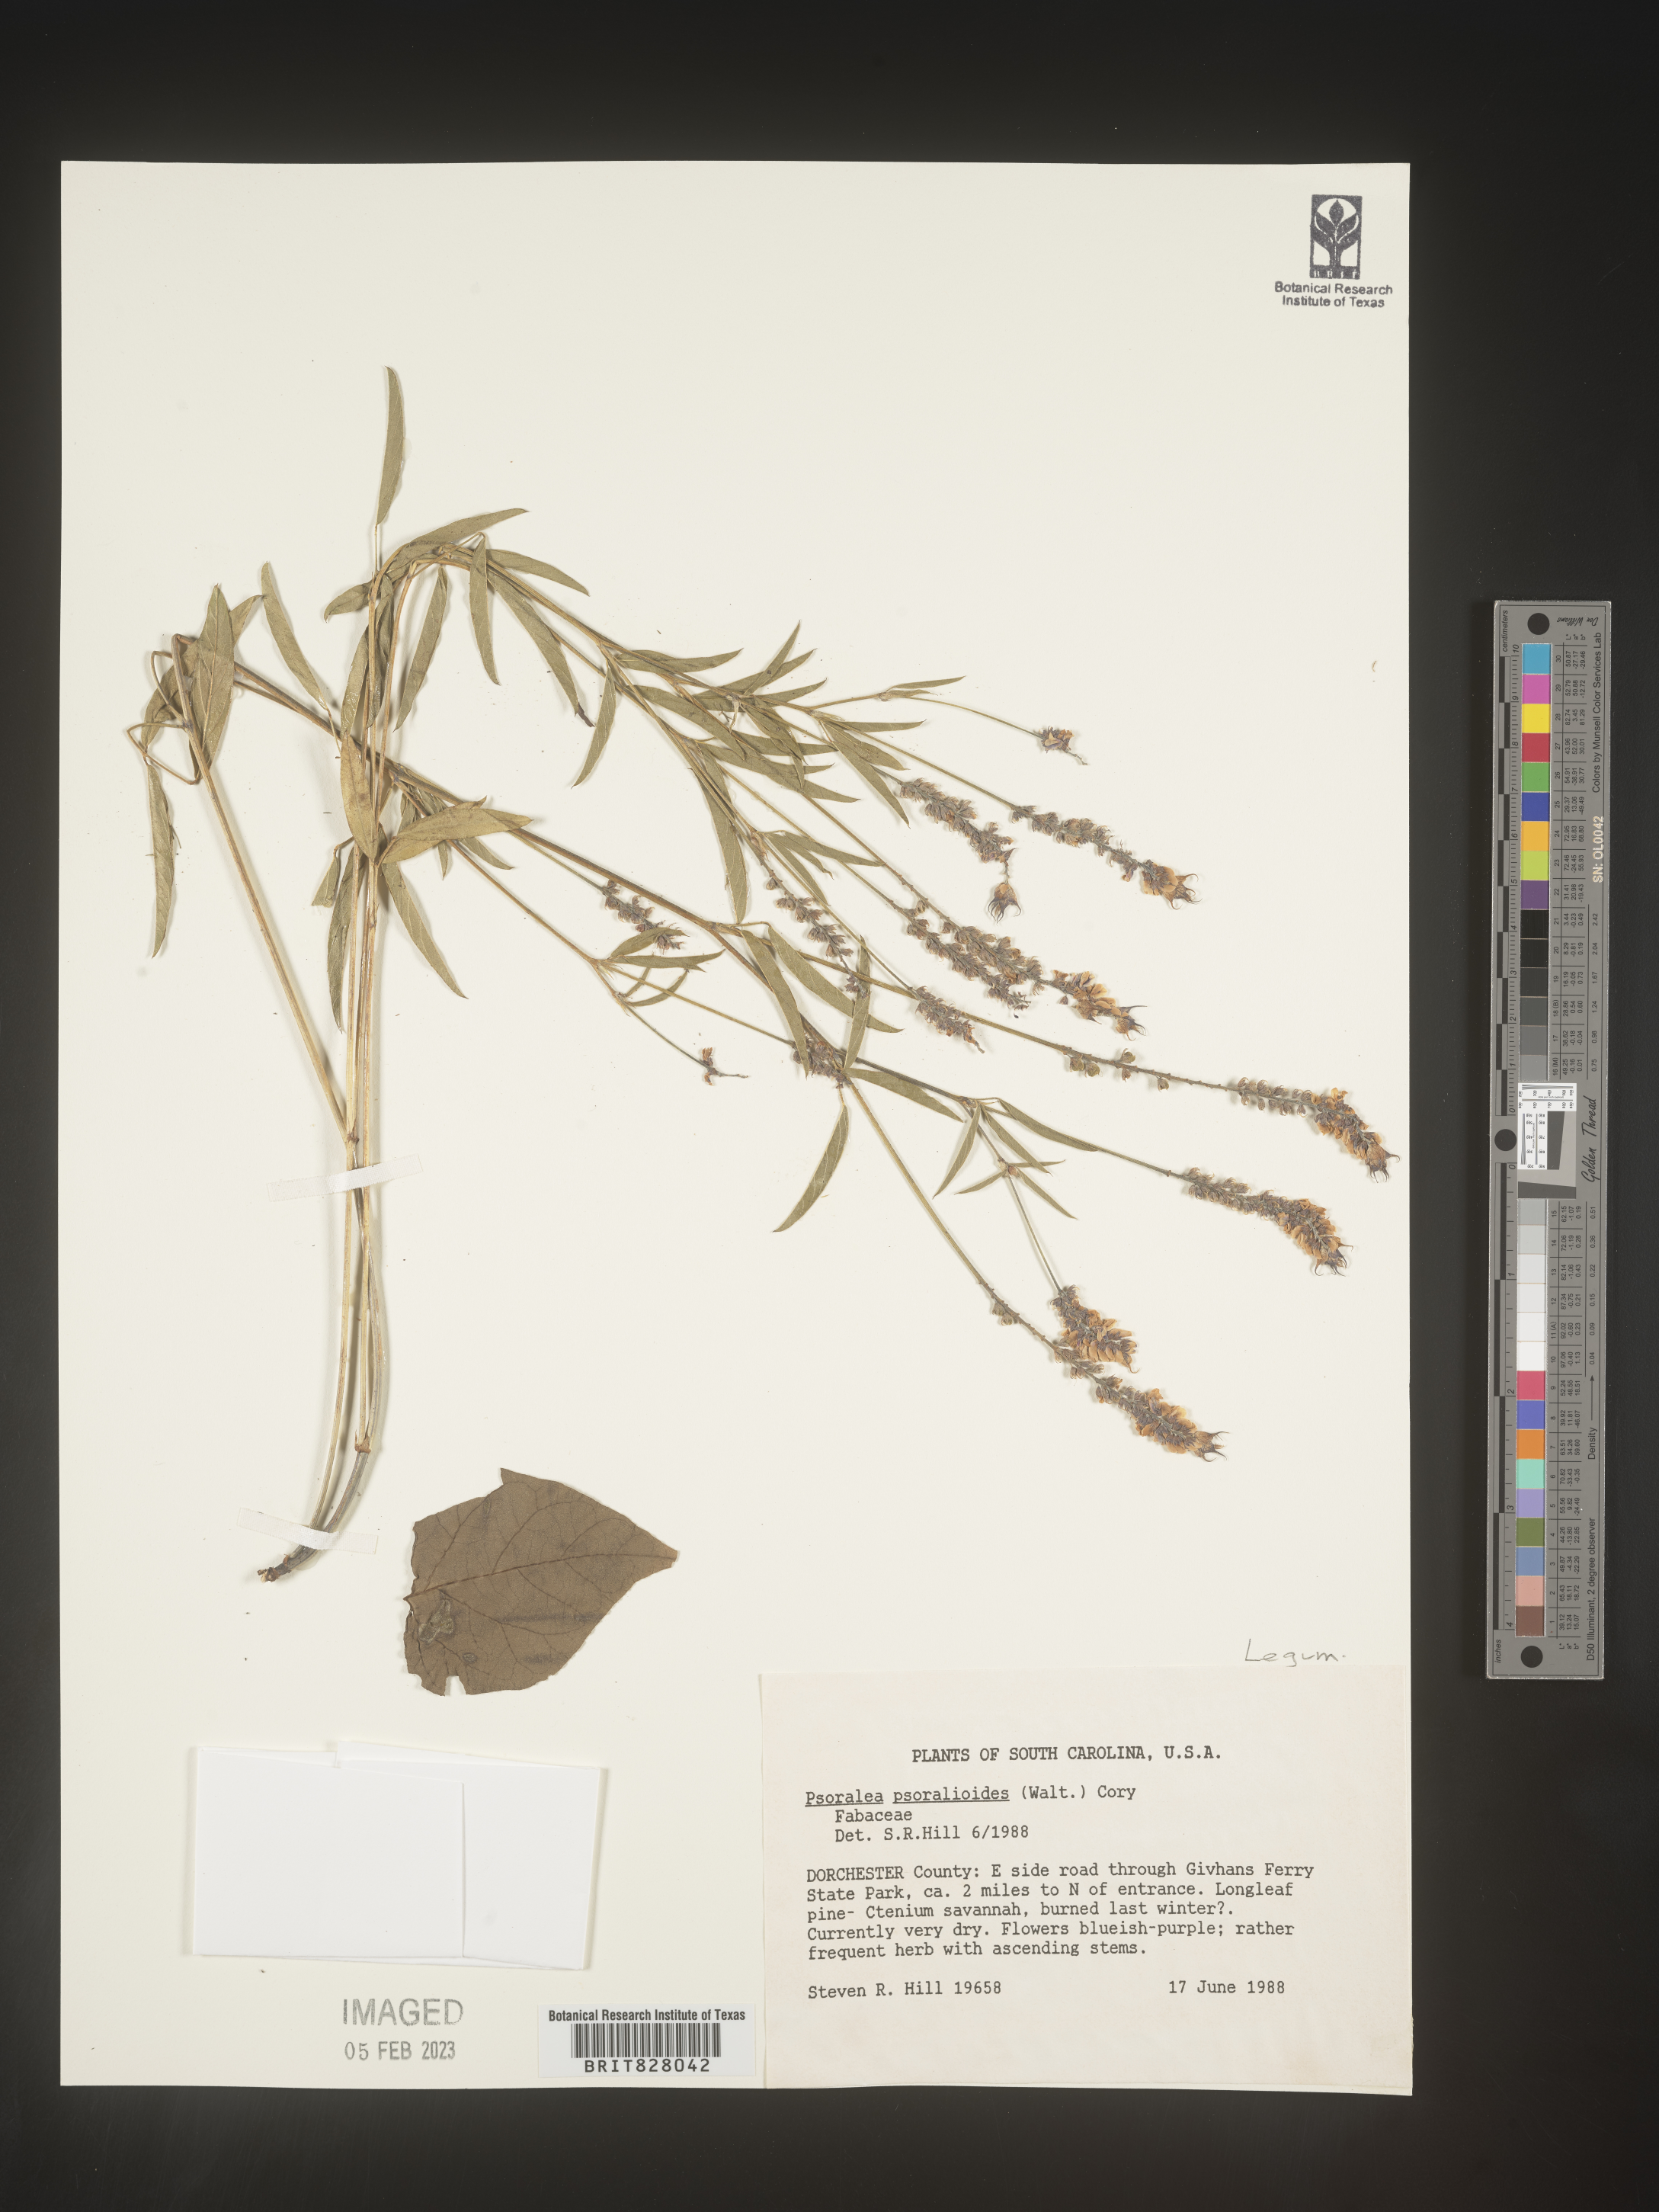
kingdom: Plantae
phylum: Tracheophyta
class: Magnoliopsida
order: Fabales
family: Fabaceae
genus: Orbexilum
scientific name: Orbexilum pedunculatum
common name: Sampson's snakeroot
